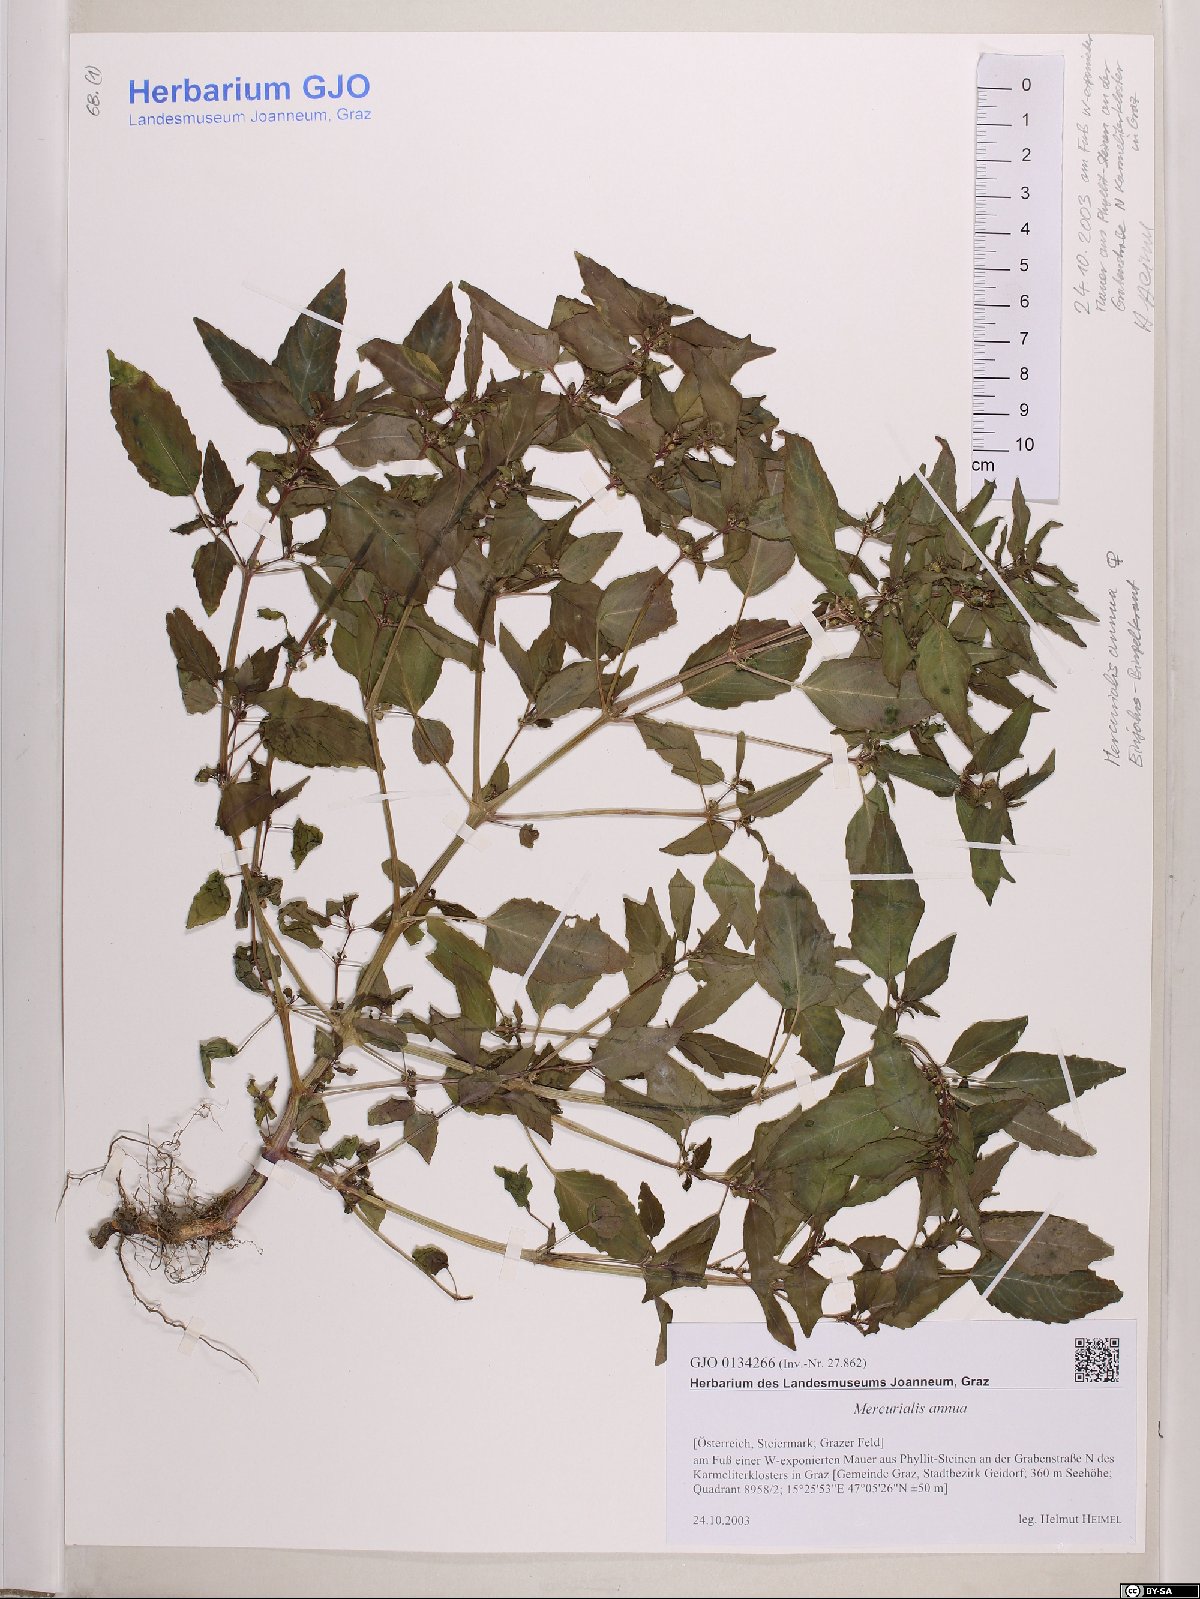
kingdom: Plantae
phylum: Tracheophyta
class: Magnoliopsida
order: Malpighiales
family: Euphorbiaceae
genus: Mercurialis
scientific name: Mercurialis annua
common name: Annual mercury
